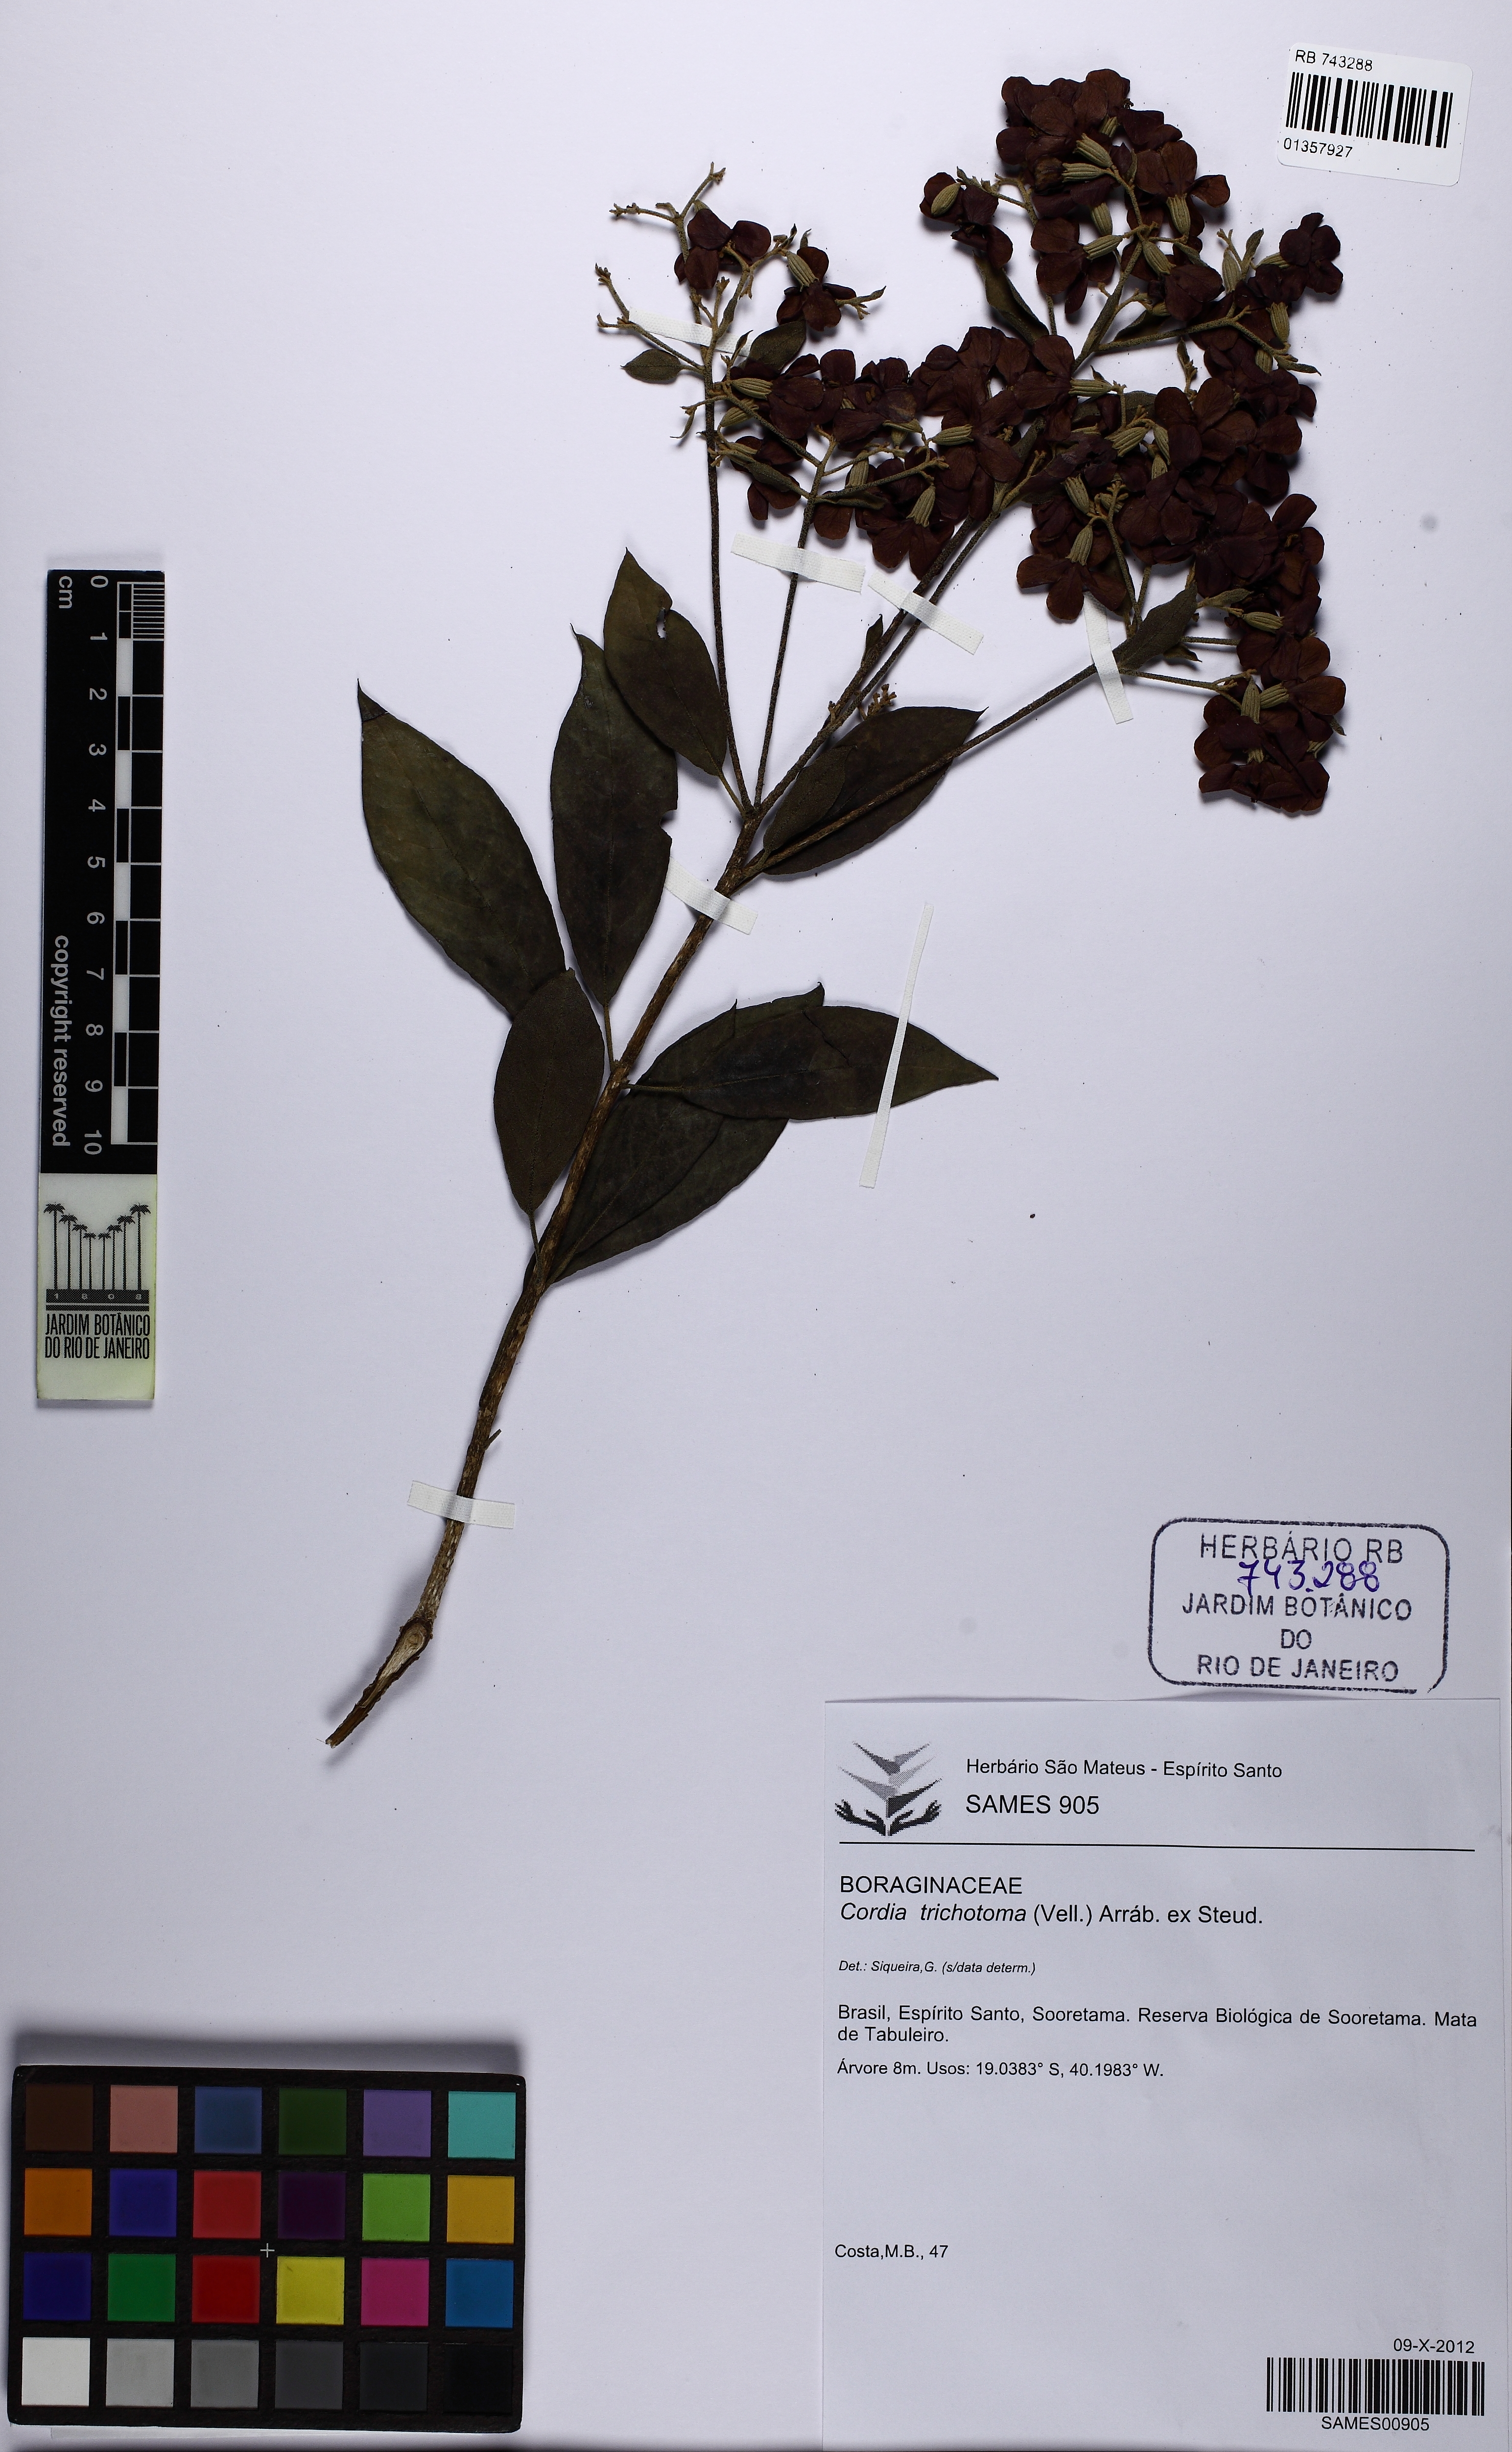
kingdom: Plantae
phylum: Tracheophyta
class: Magnoliopsida
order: Boraginales
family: Cordiaceae
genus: Cordia
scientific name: Cordia trichotoma
